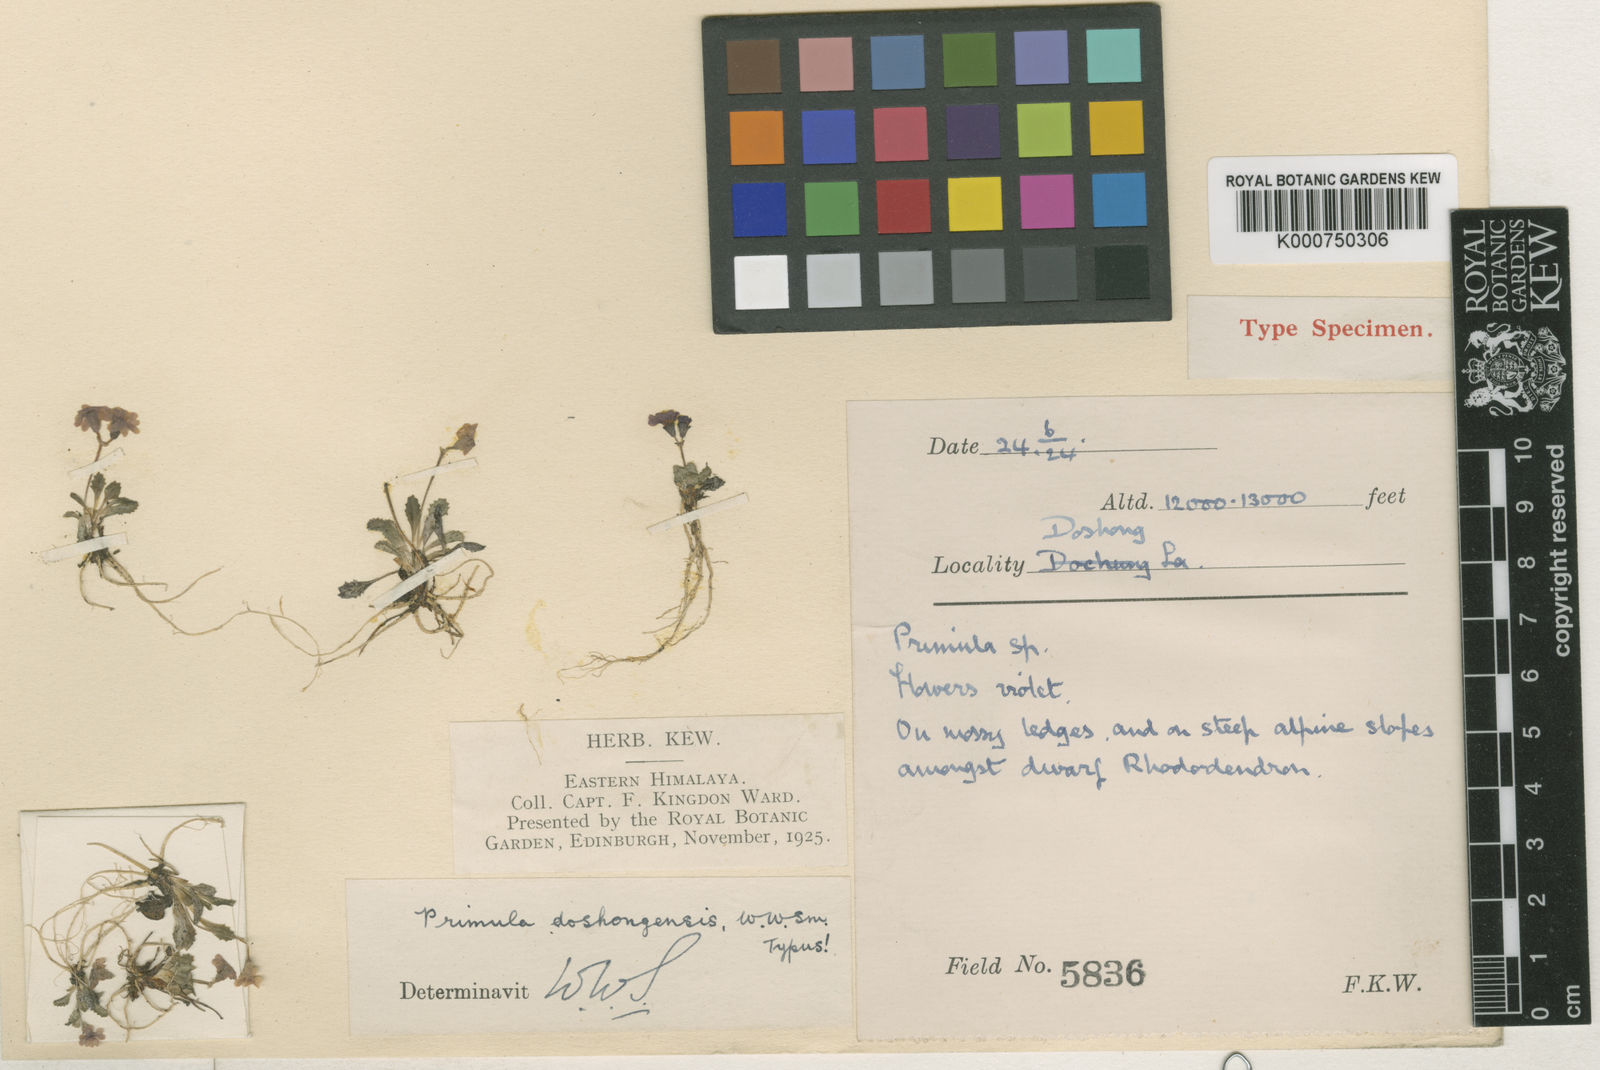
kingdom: Plantae
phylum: Tracheophyta
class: Magnoliopsida
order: Ericales
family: Primulaceae
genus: Primula
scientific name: Primula glabra
